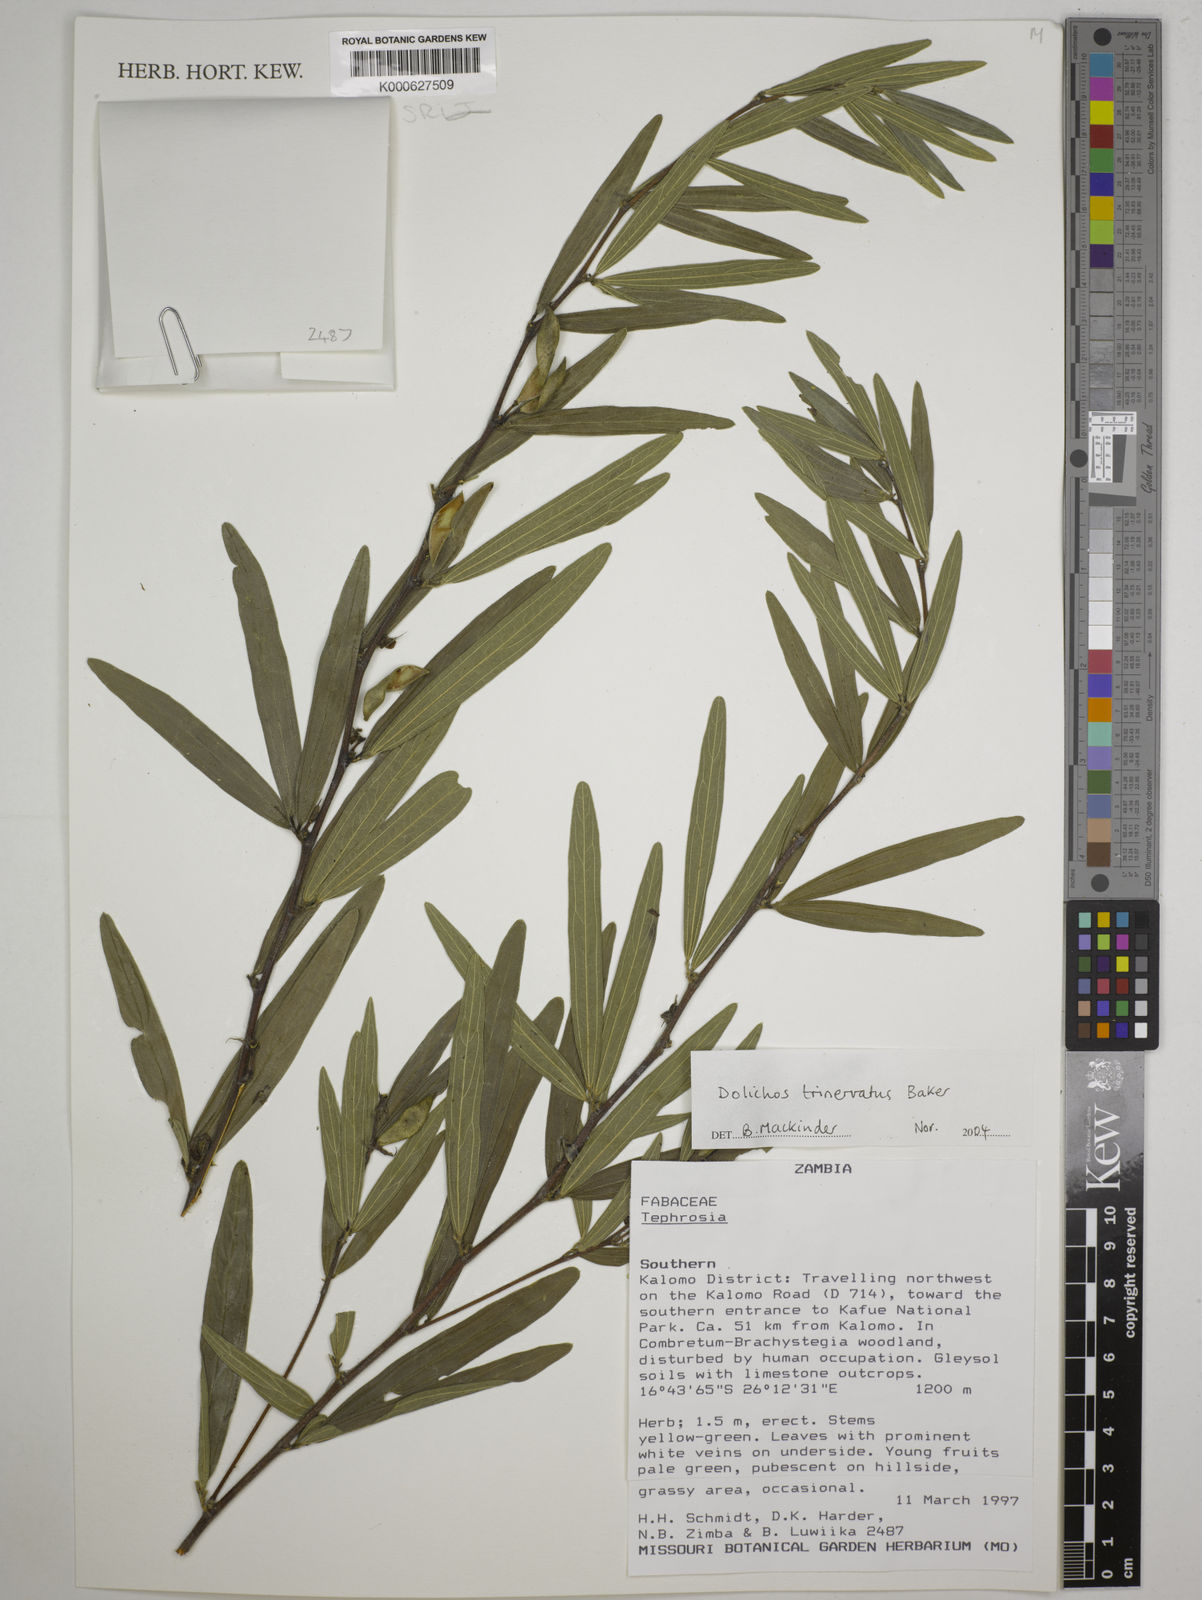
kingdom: Plantae
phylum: Tracheophyta
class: Magnoliopsida
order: Fabales
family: Fabaceae
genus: Dolichos
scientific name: Dolichos trinervatus
